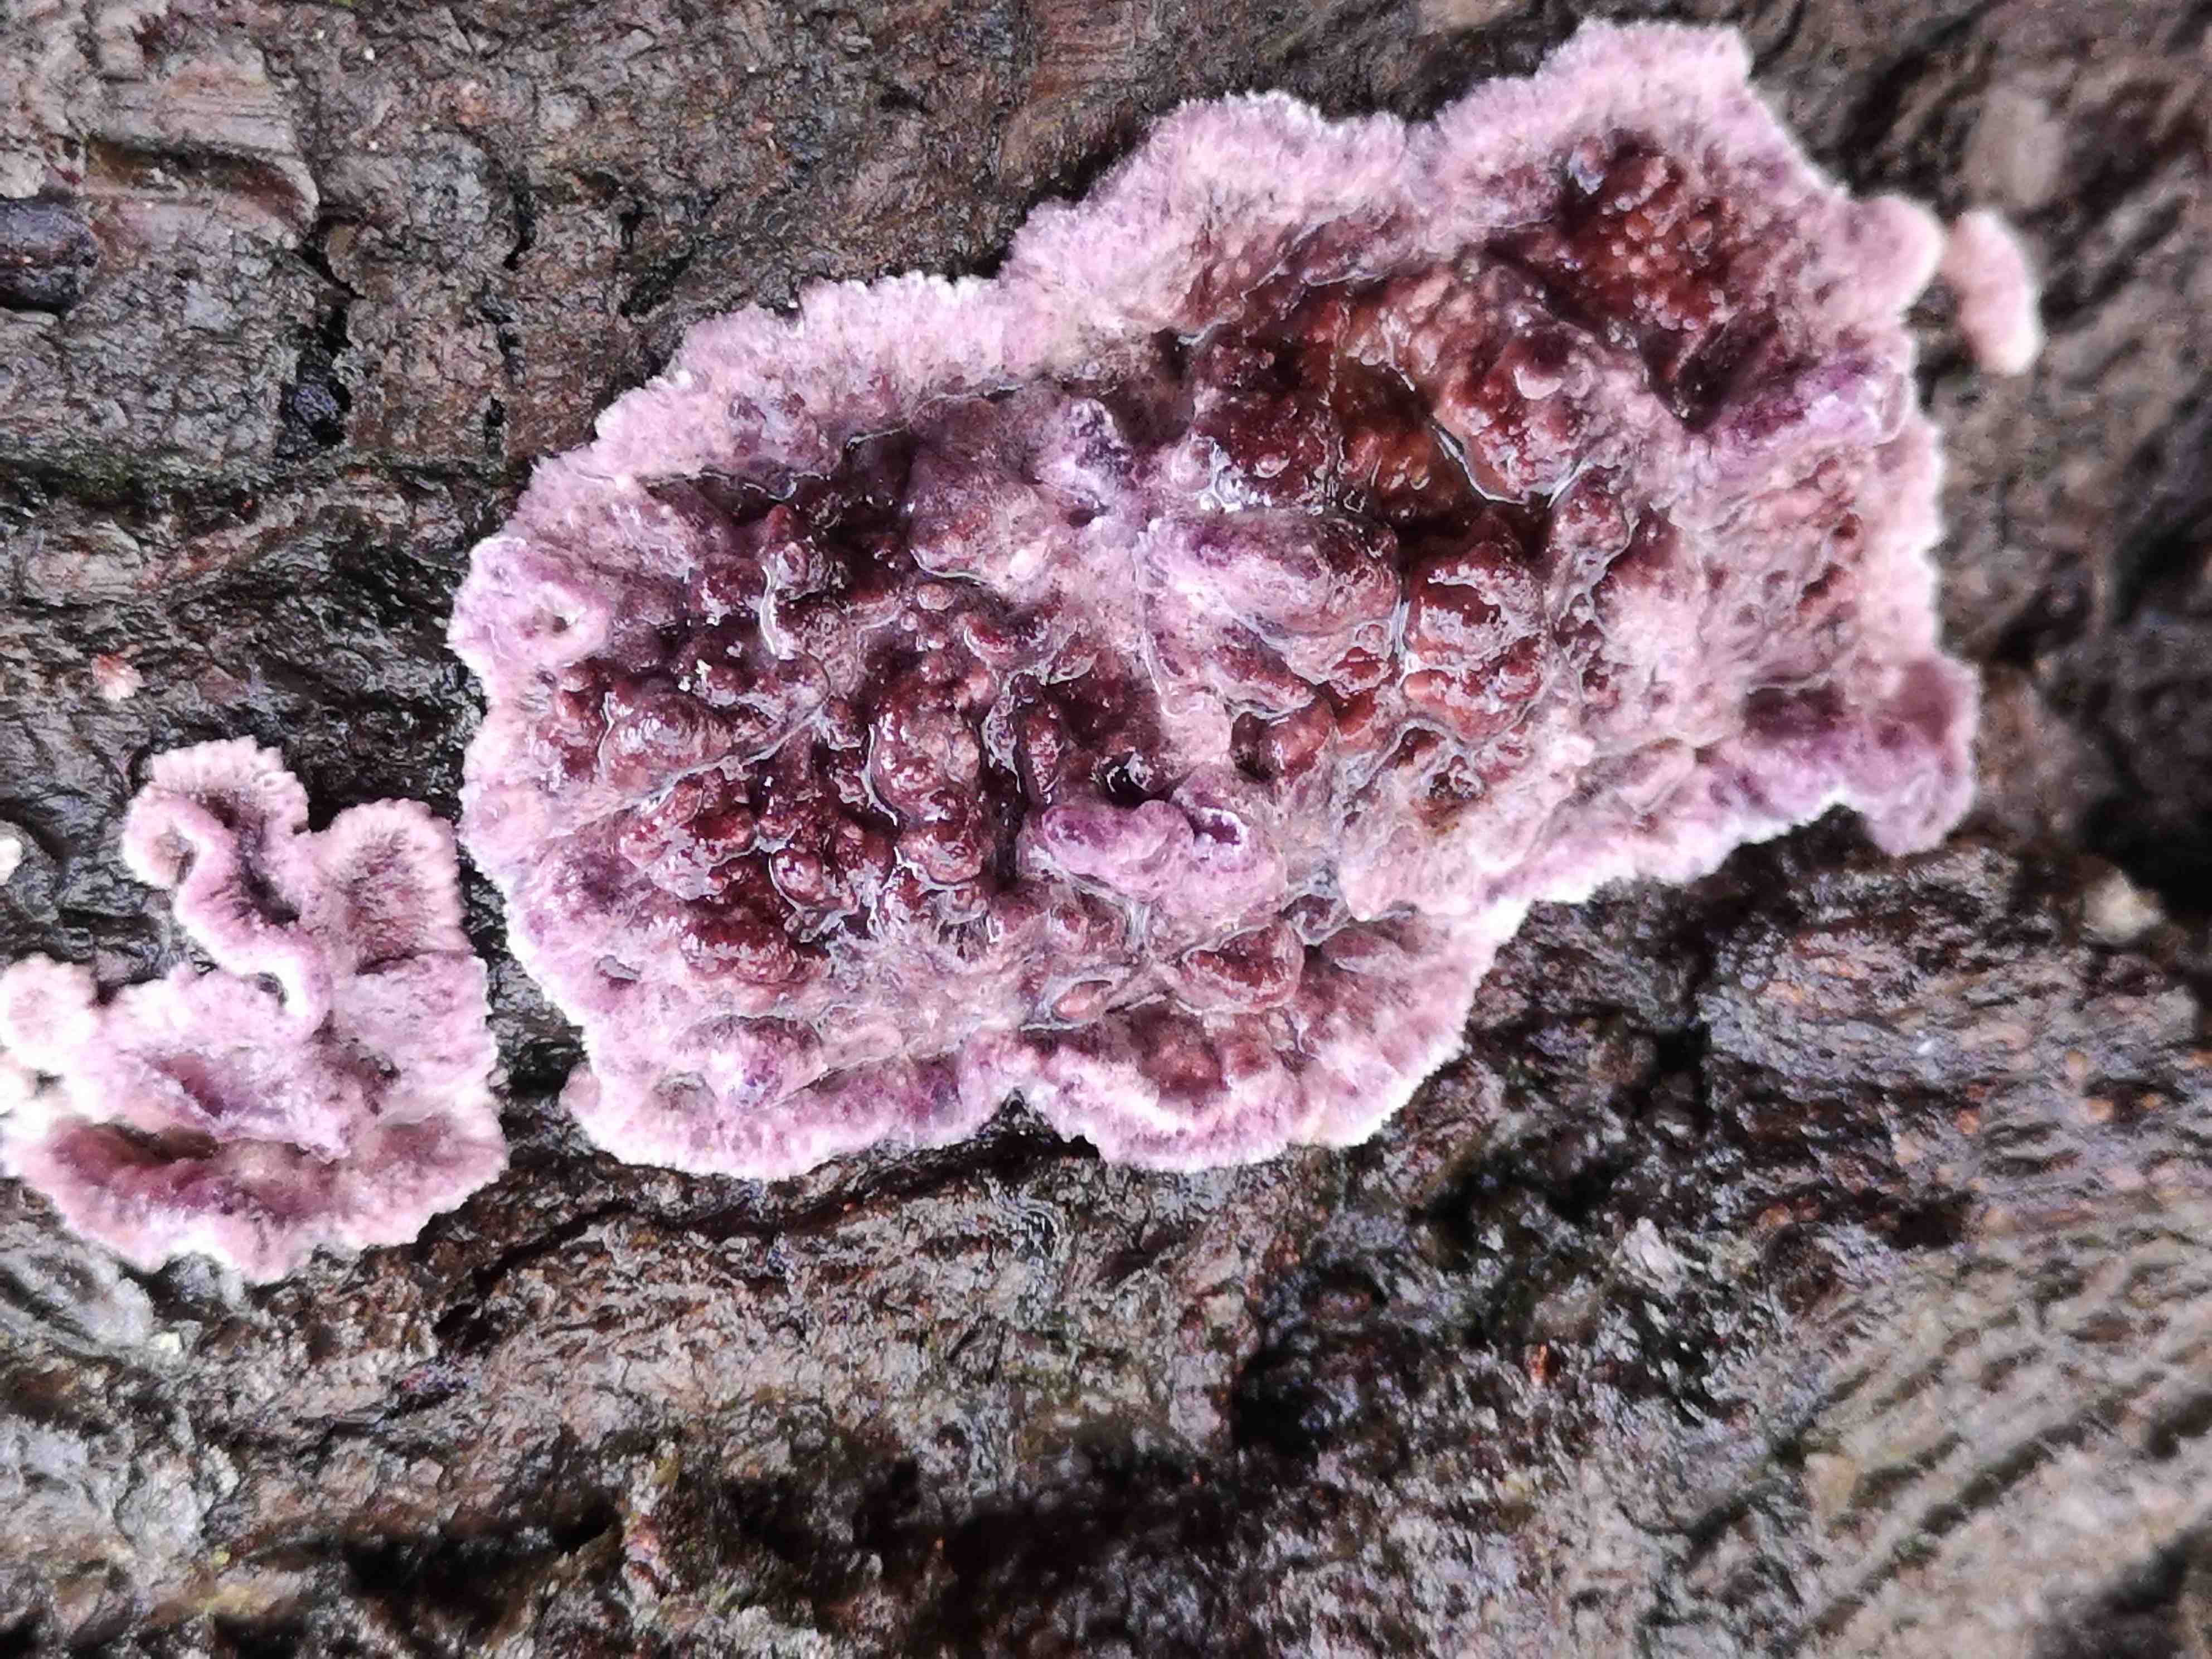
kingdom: Fungi
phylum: Basidiomycota
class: Agaricomycetes
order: Agaricales
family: Cyphellaceae
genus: Chondrostereum
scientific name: Chondrostereum purpureum
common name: purpurlædersvamp
